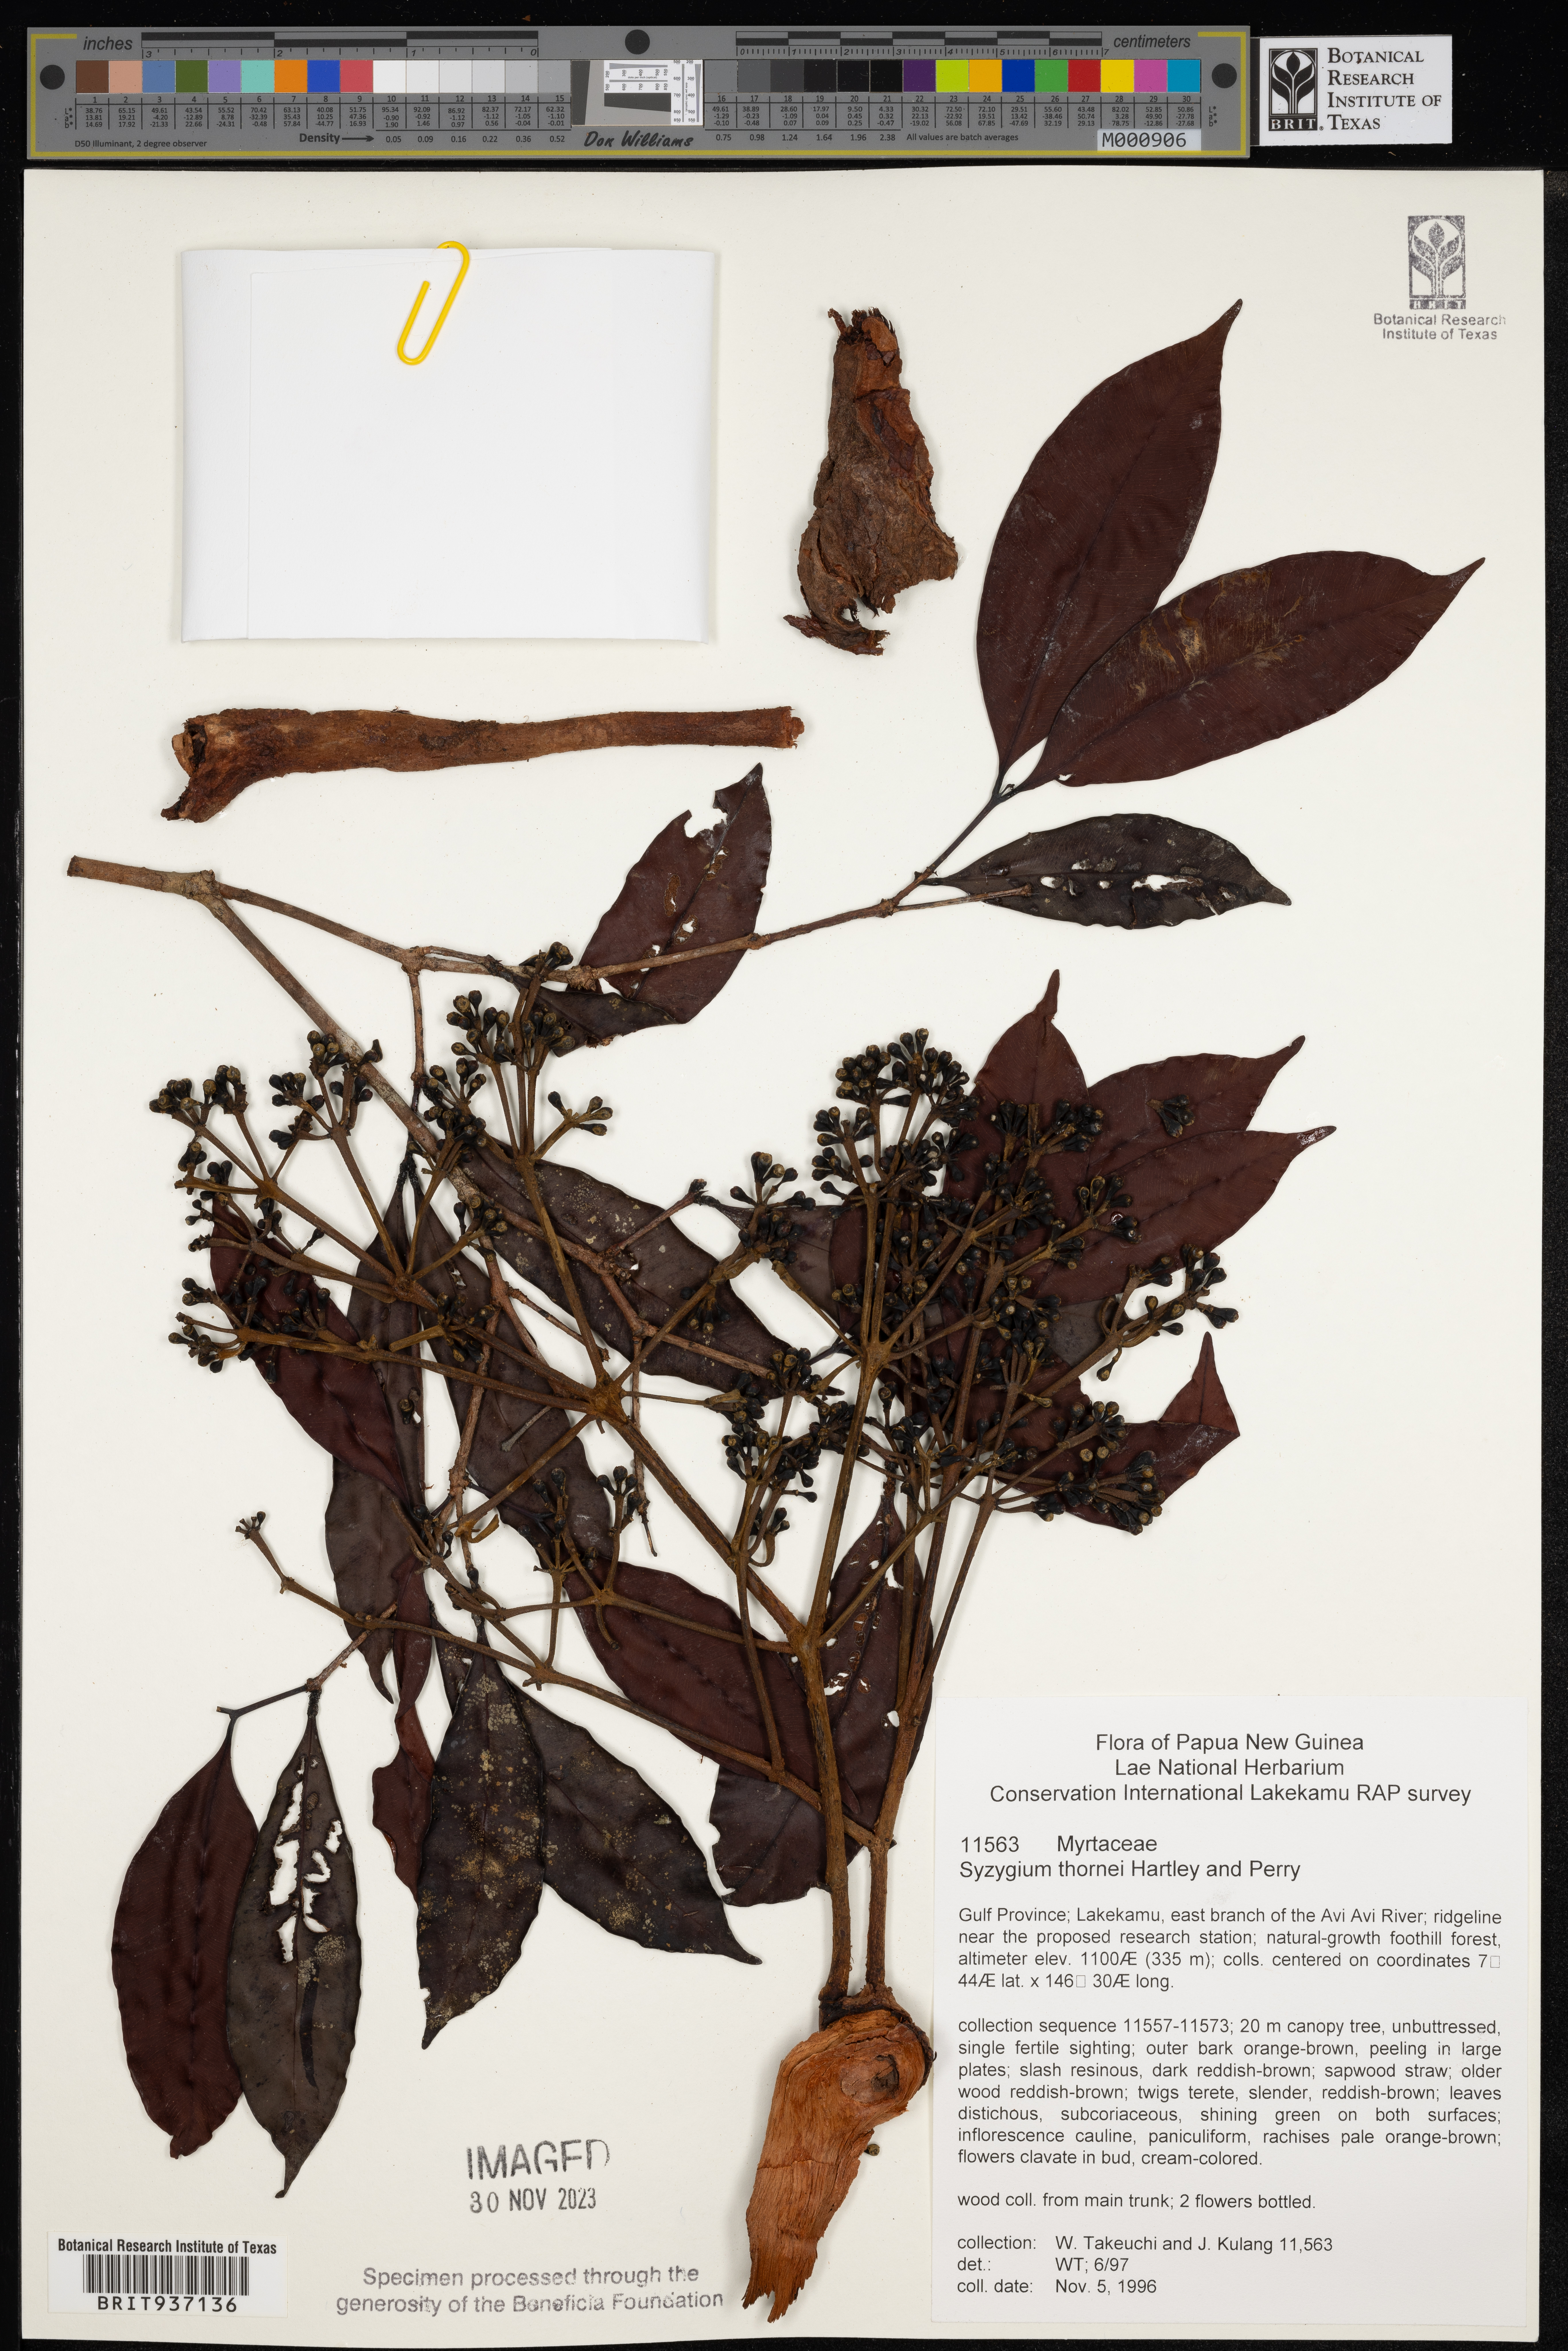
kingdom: Plantae
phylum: Tracheophyta
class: Magnoliopsida
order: Myrtales
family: Myrtaceae
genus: Syzygium
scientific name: Syzygium
